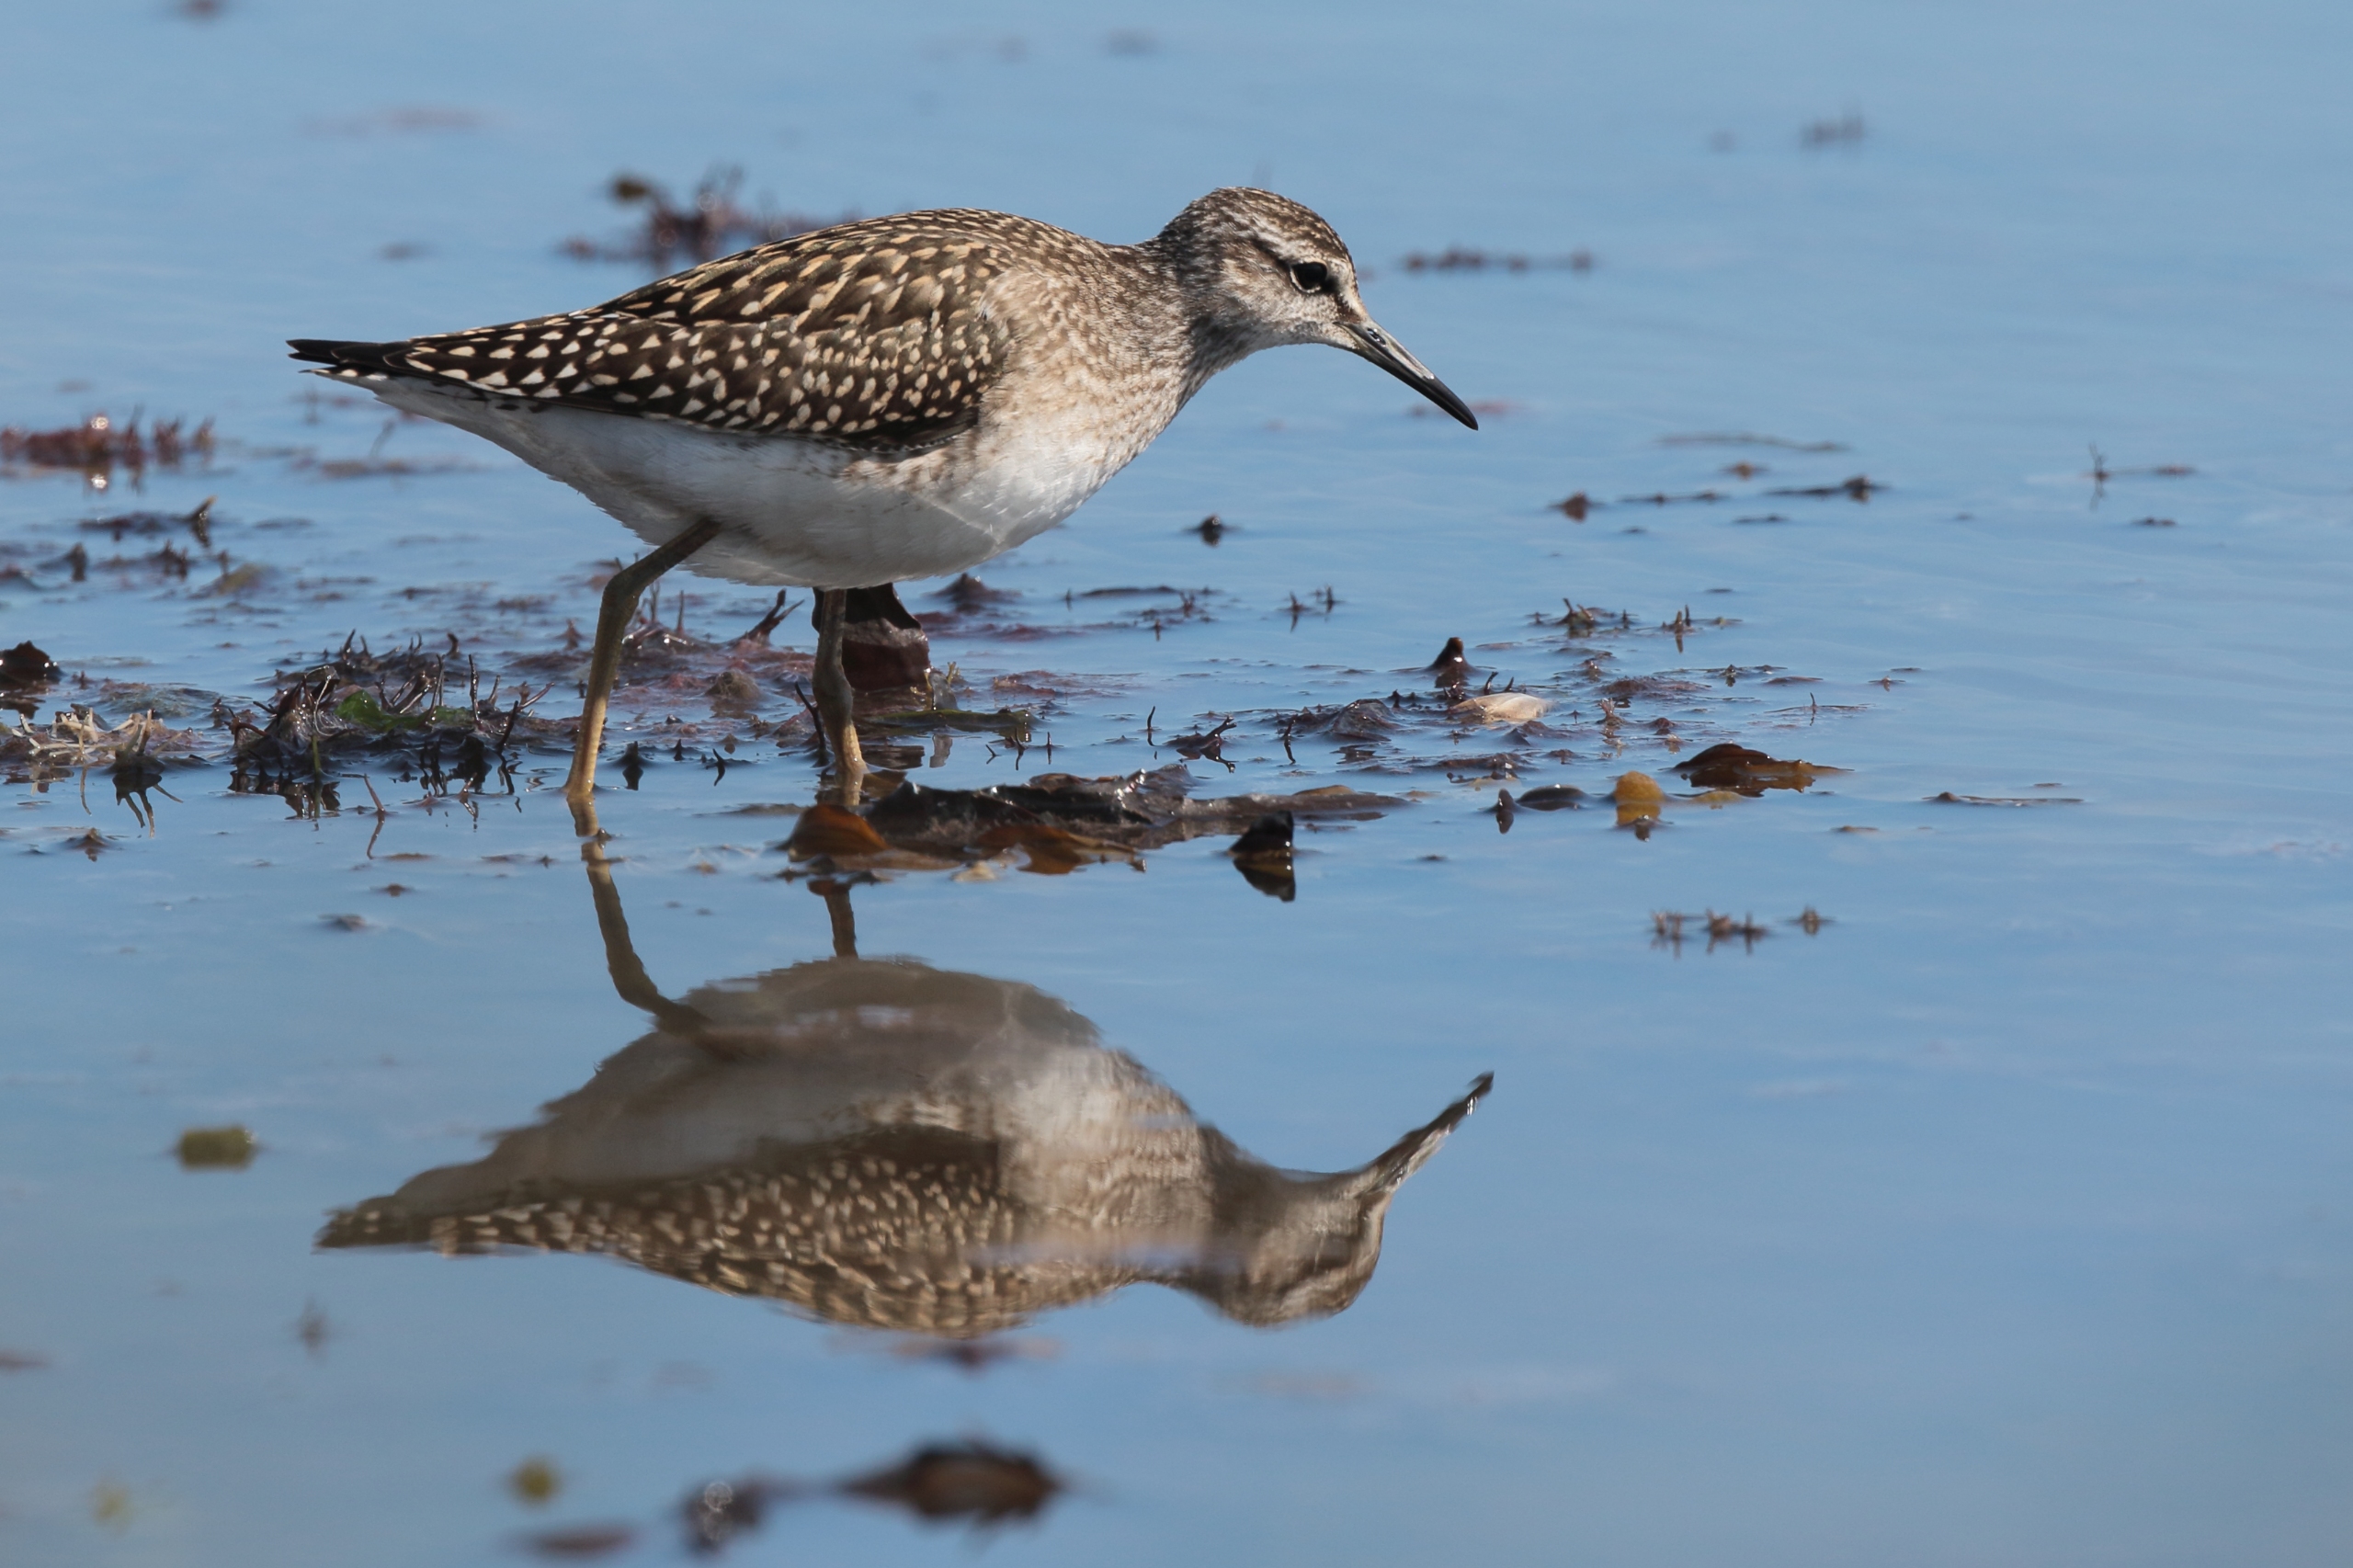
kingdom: Animalia
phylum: Chordata
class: Aves
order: Charadriiformes
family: Scolopacidae
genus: Tringa
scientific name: Tringa glareola
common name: Tinksmed
